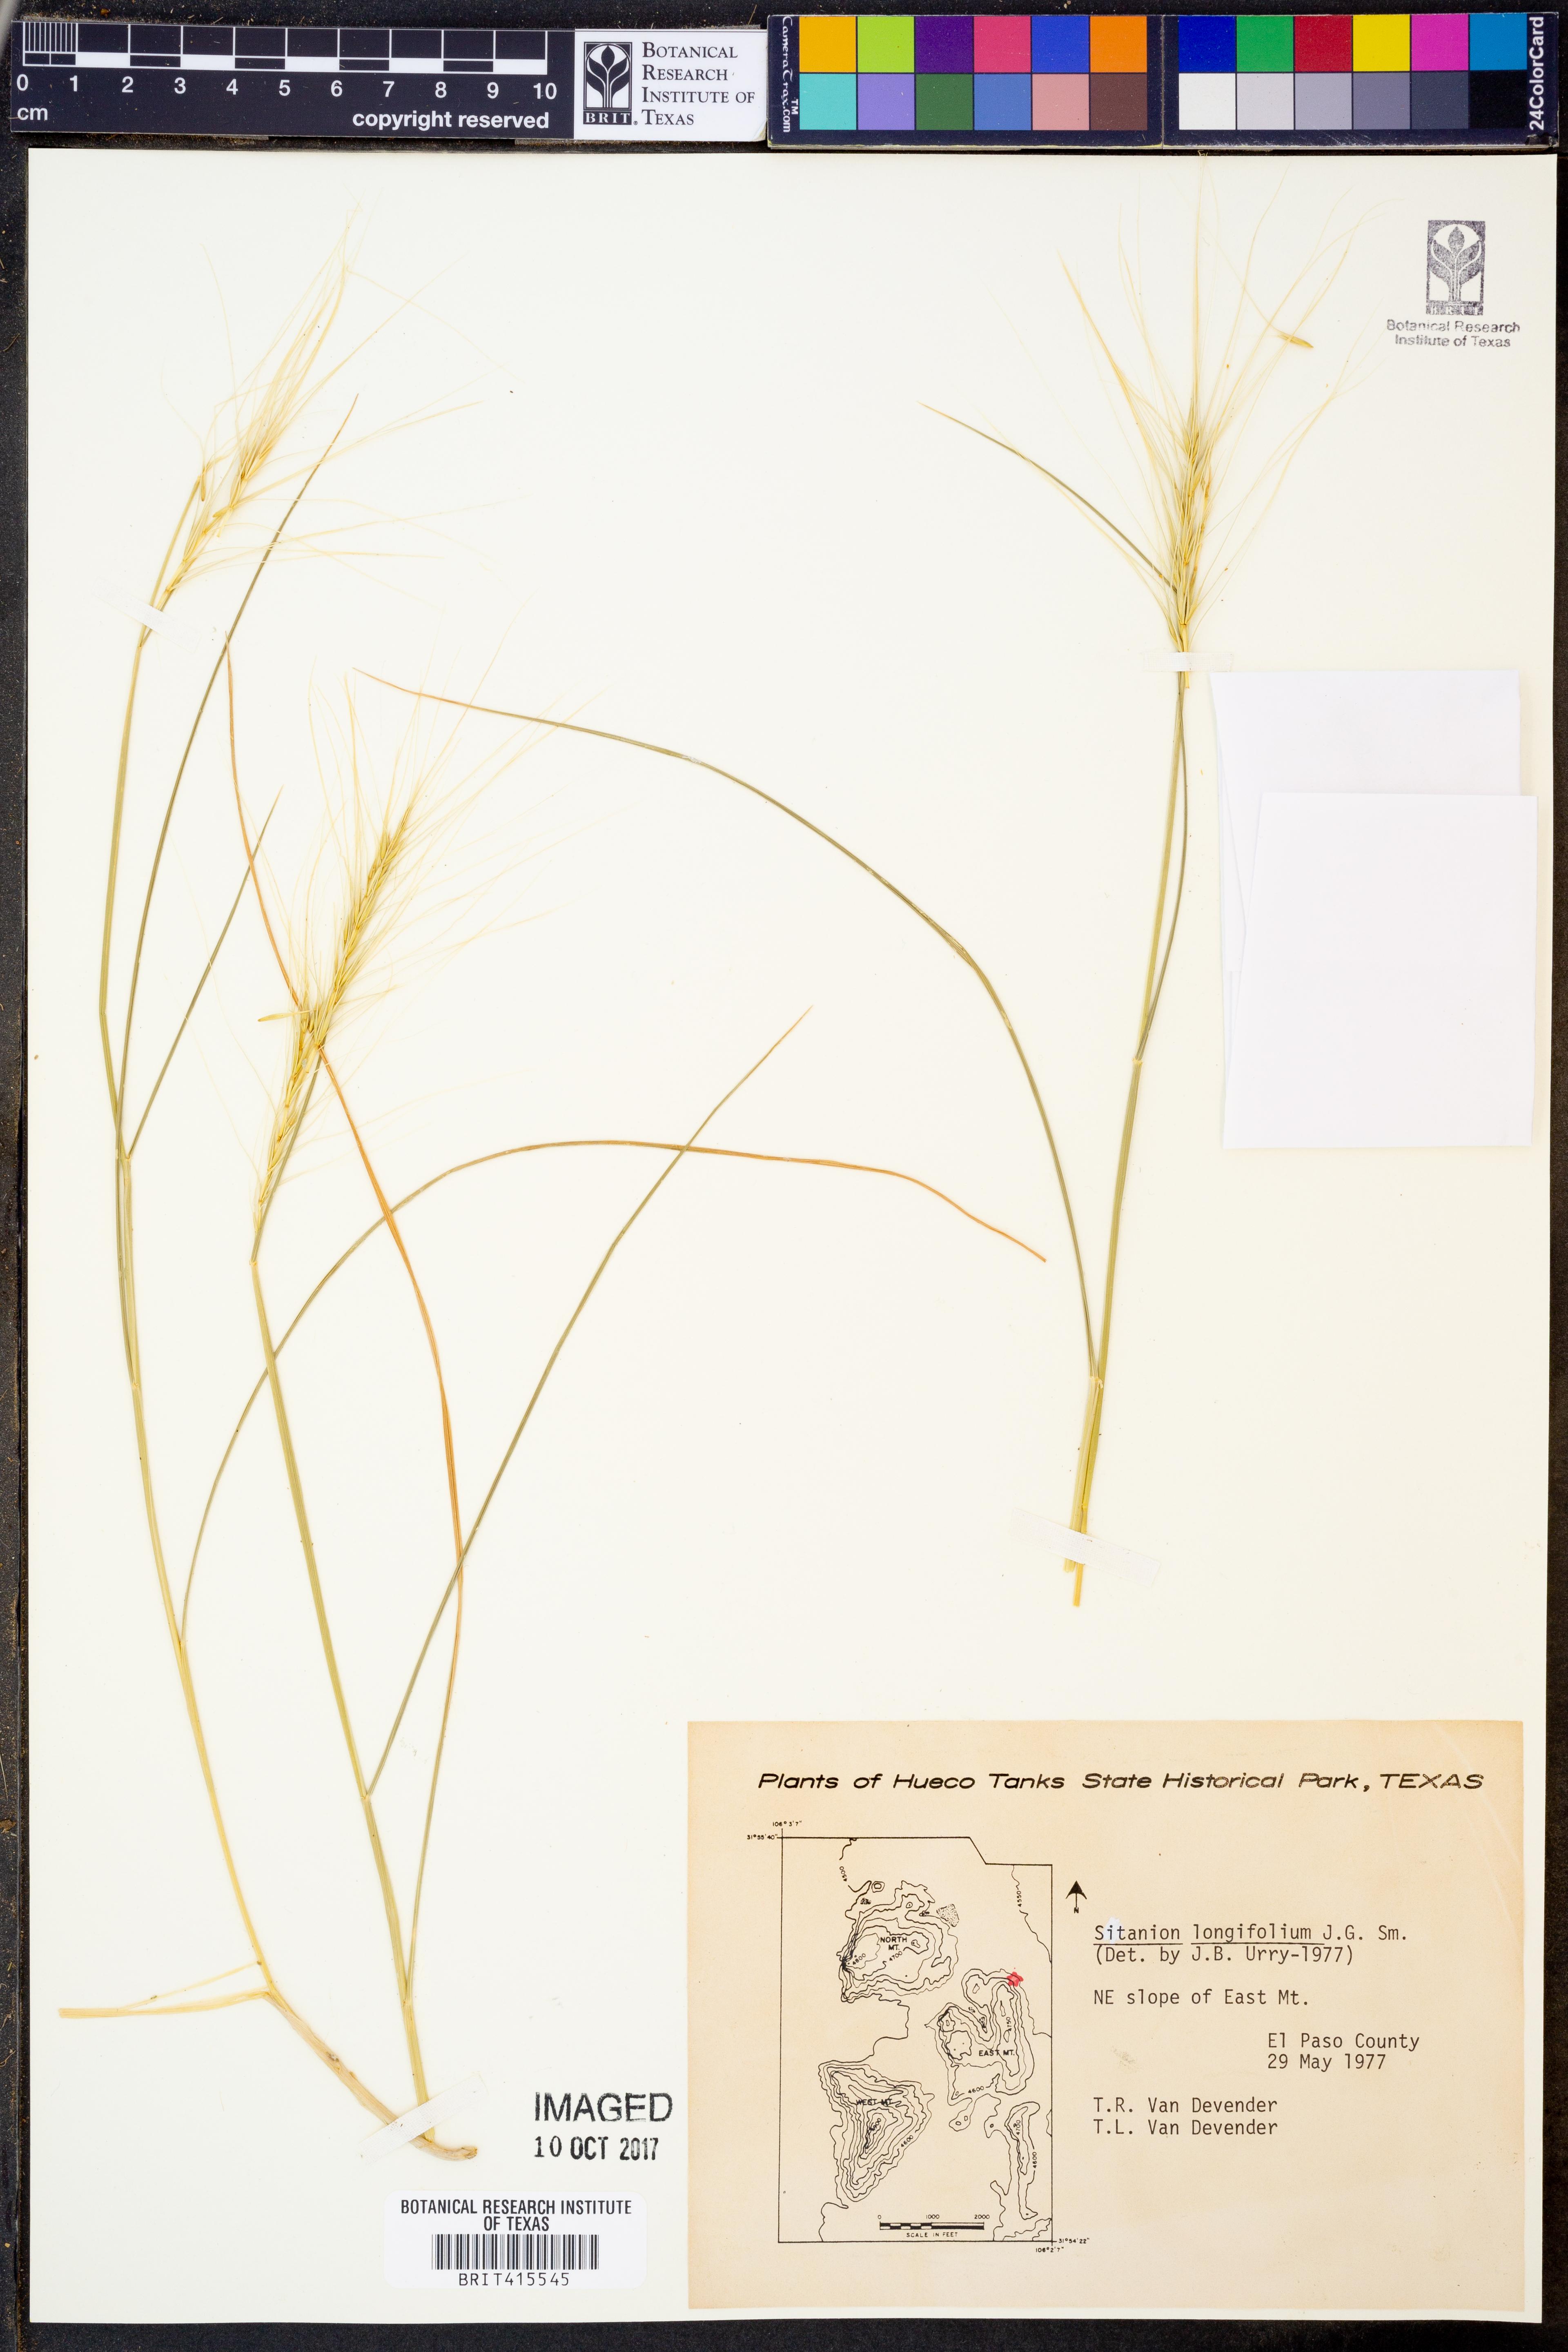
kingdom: Plantae
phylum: Tracheophyta
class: Liliopsida
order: Poales
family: Poaceae
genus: Elymus
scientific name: Elymus longifolius
